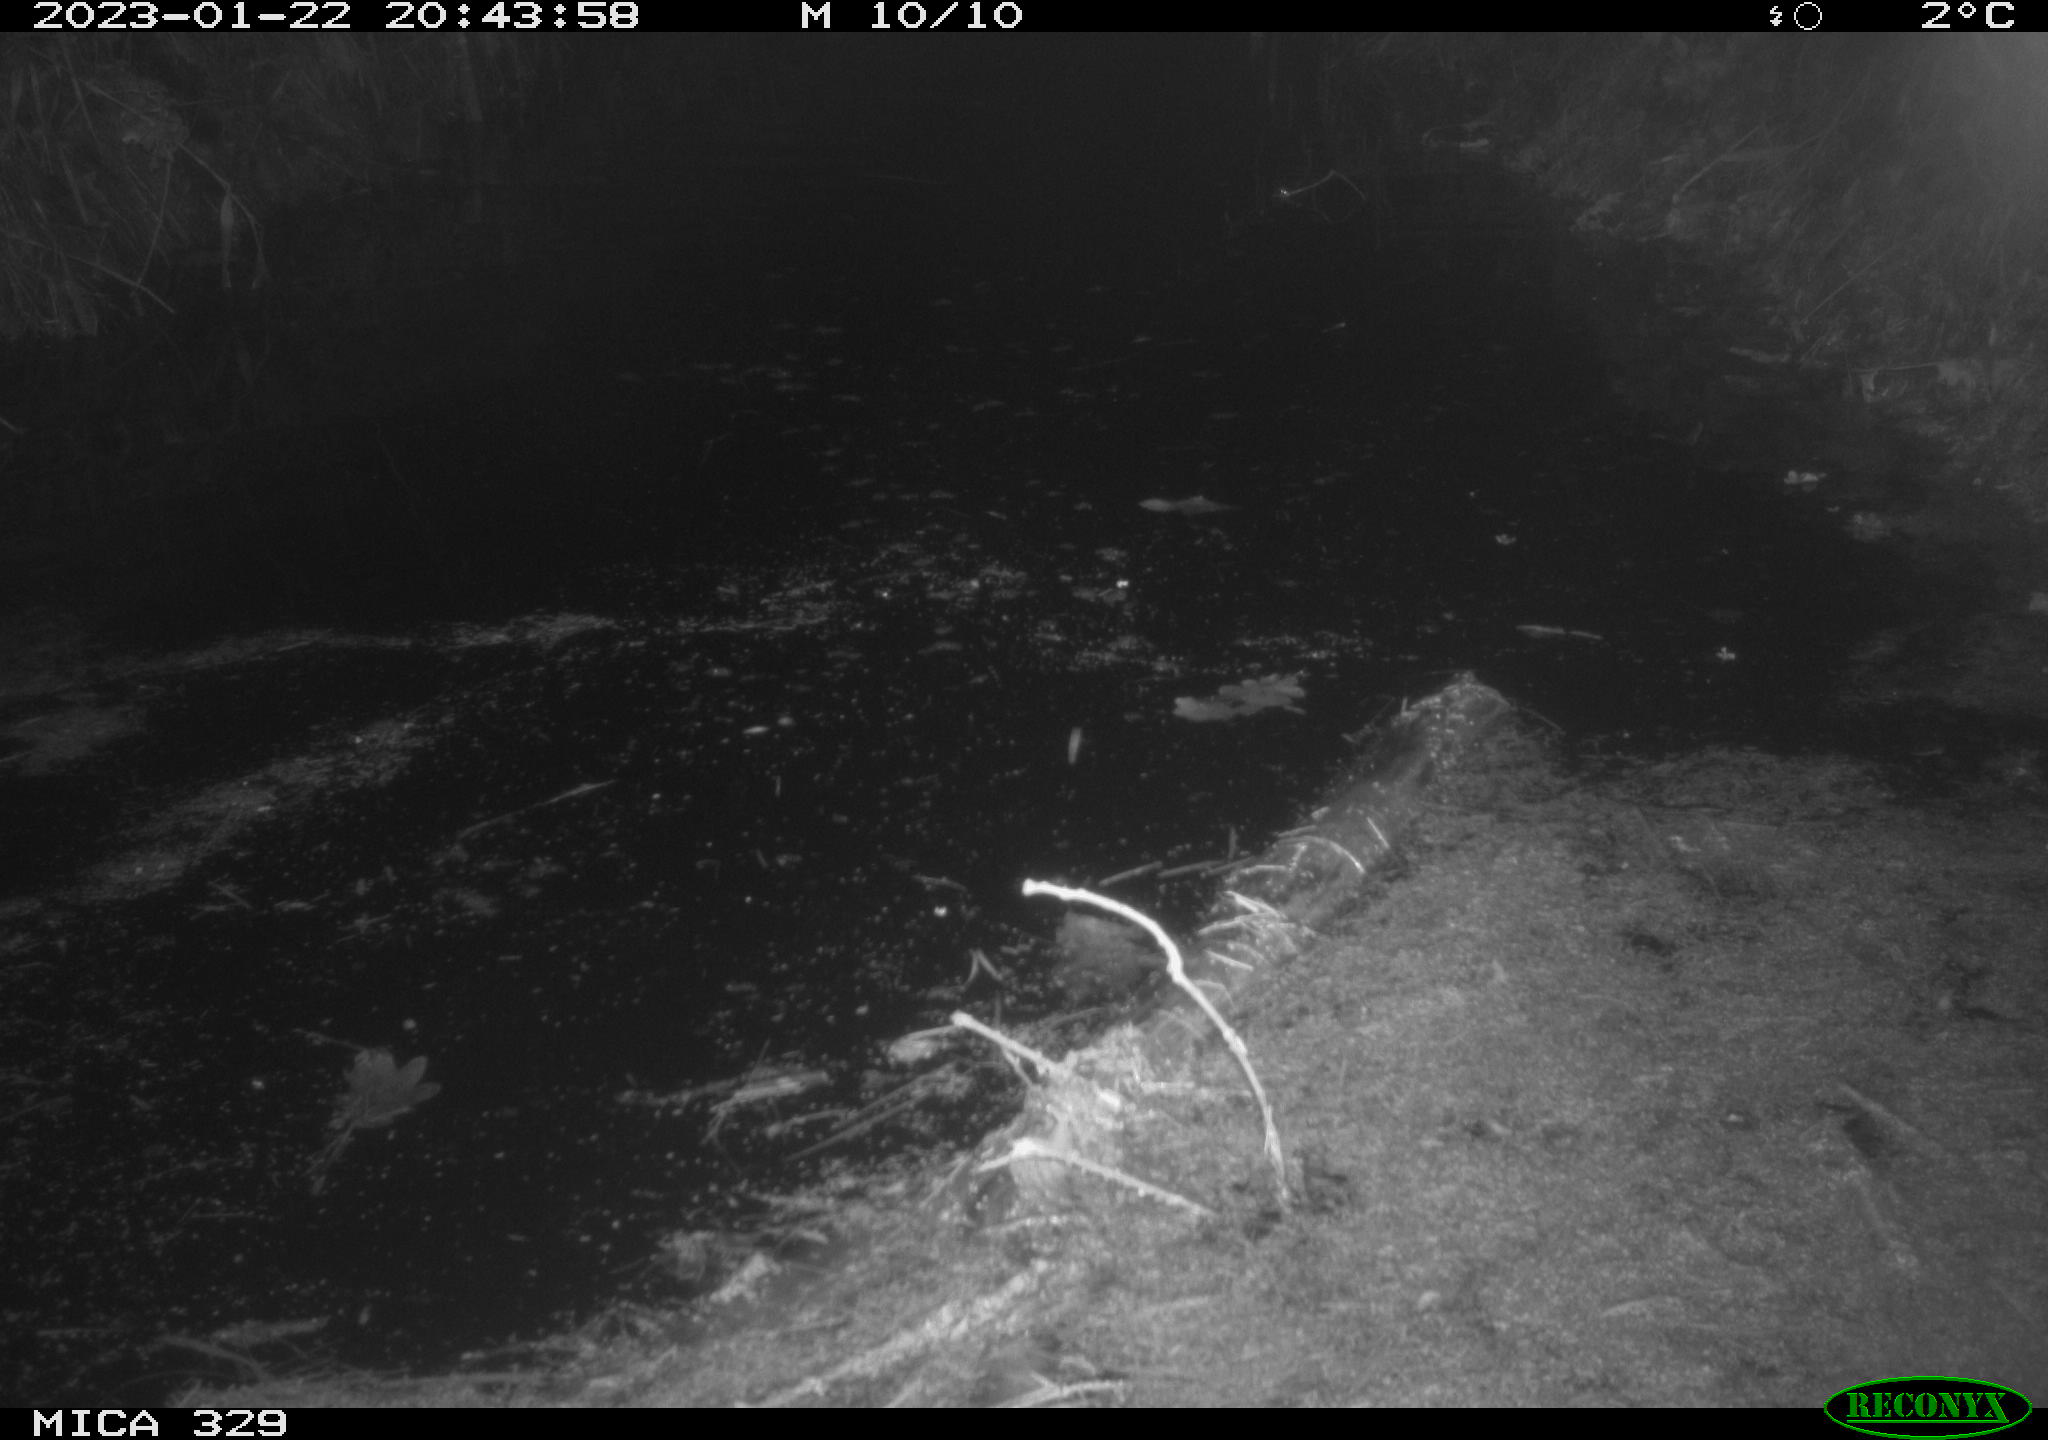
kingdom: Animalia
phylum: Chordata
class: Mammalia
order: Rodentia
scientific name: Rodentia
